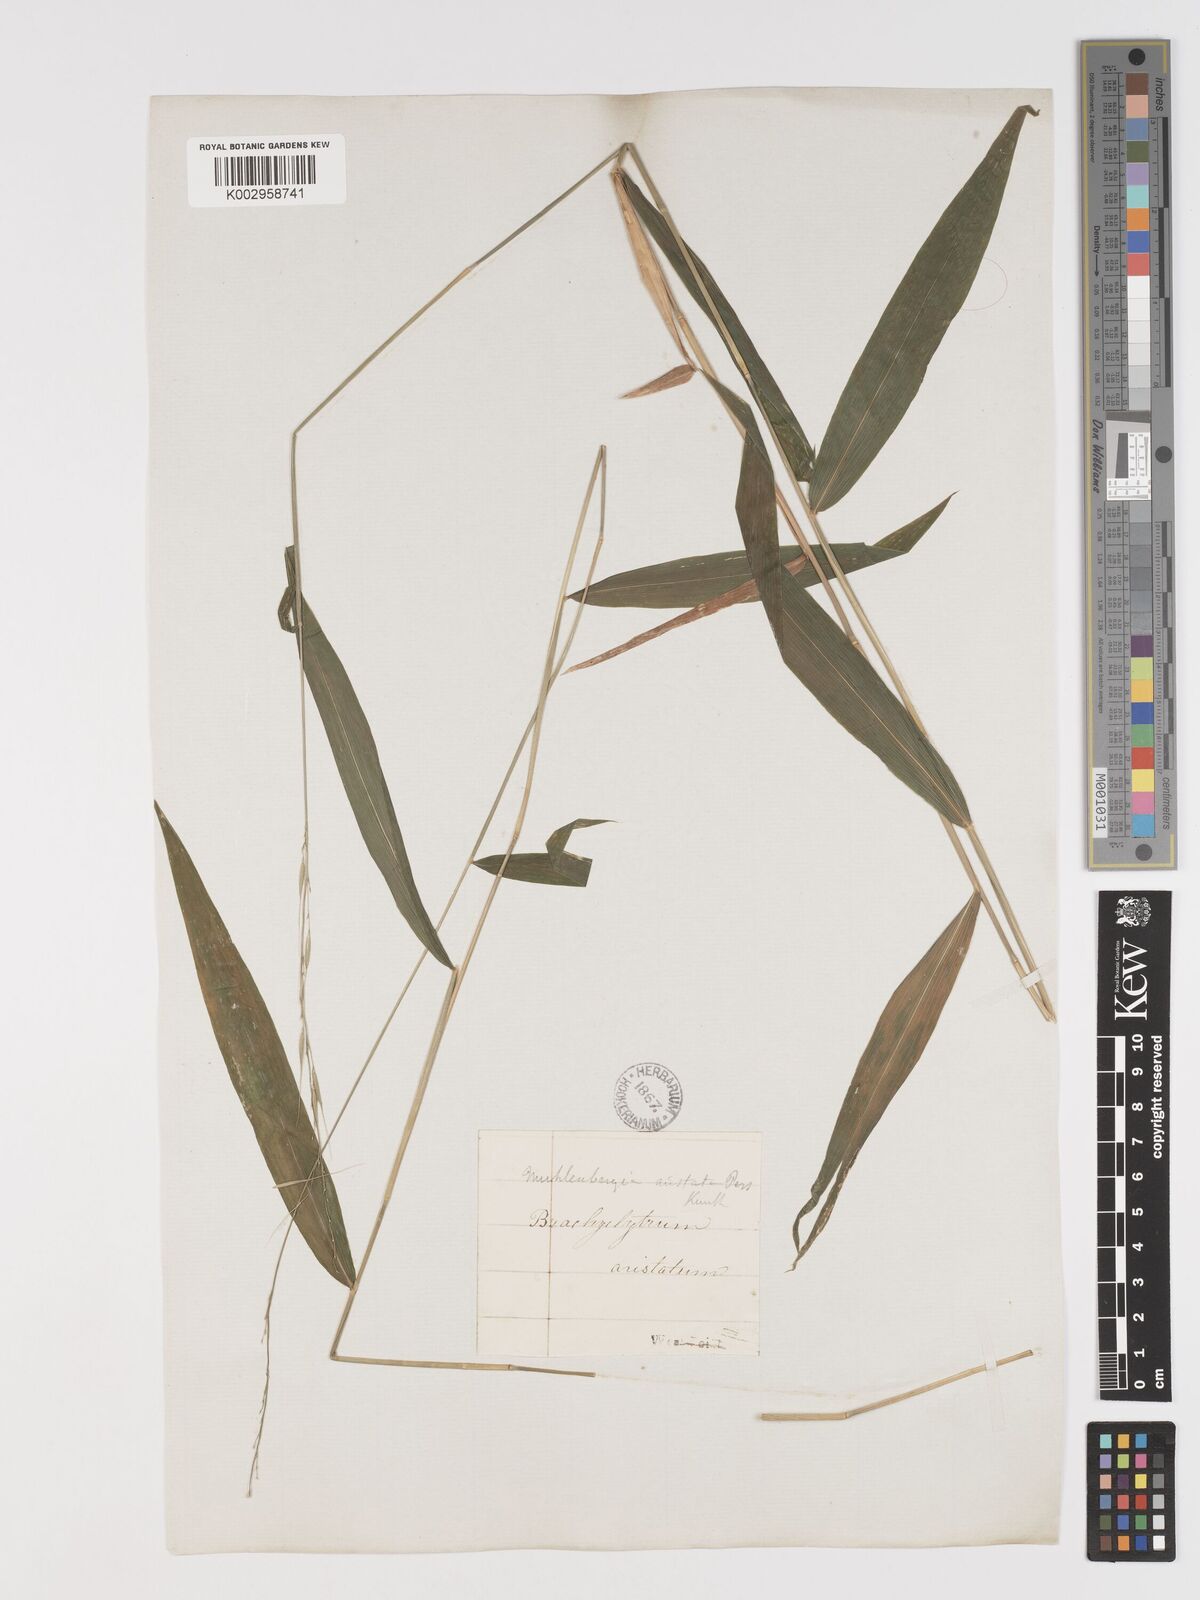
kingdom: Plantae
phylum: Tracheophyta
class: Liliopsida
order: Poales
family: Poaceae
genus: Brachyelytrum
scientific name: Brachyelytrum erectum
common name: Bearded shorthusk
